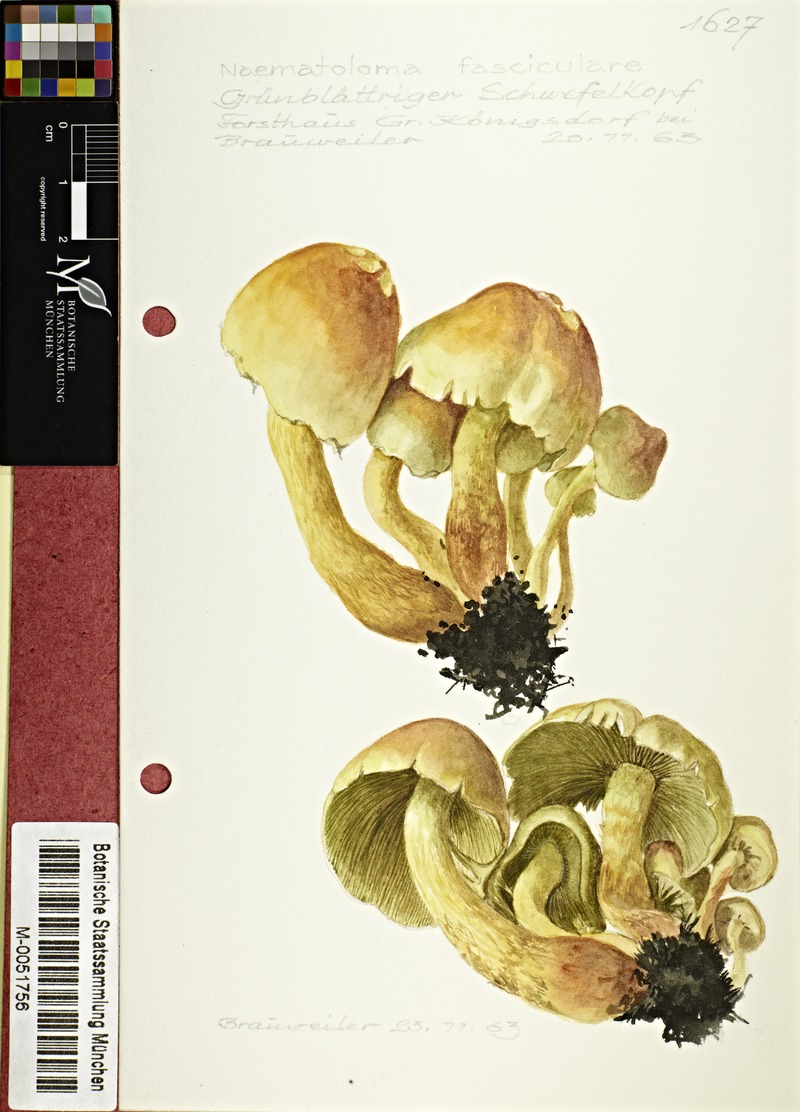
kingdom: Fungi
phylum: Basidiomycota
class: Agaricomycetes
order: Agaricales
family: Strophariaceae
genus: Hypholoma
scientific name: Hypholoma fasciculare
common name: Sulphur tuft
